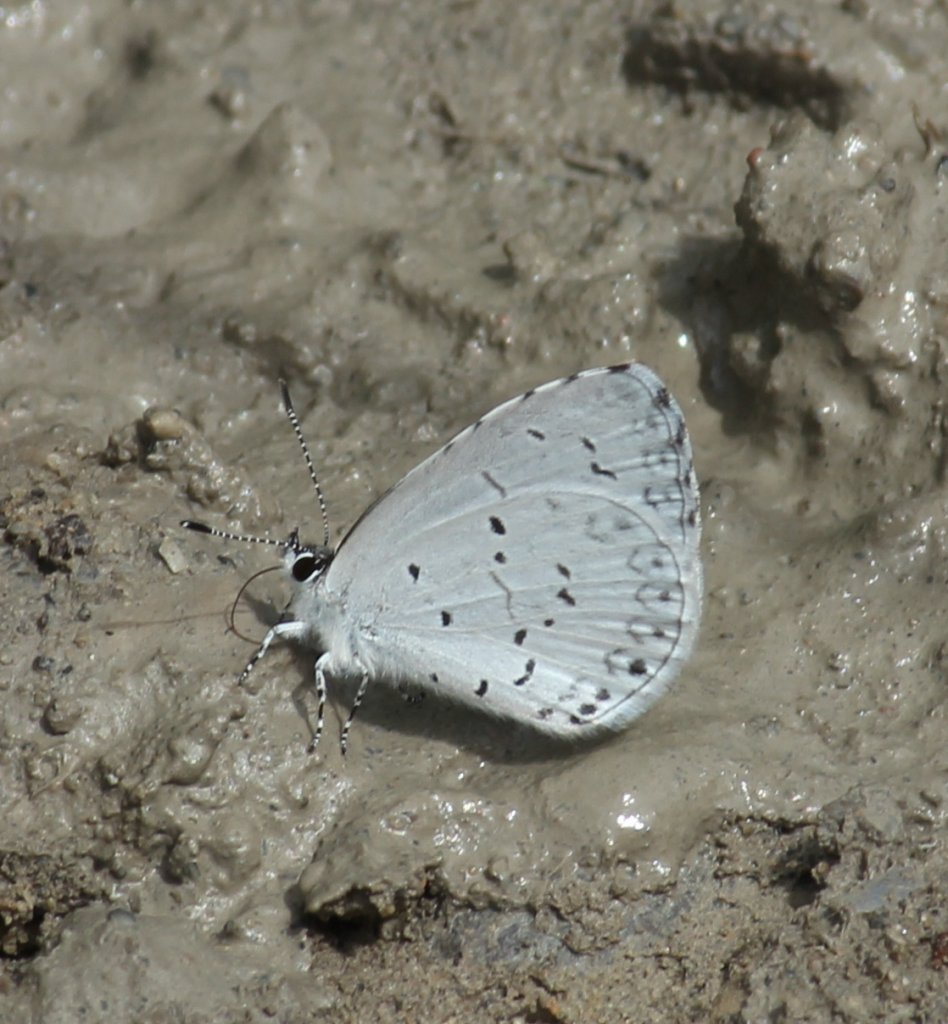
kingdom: Animalia
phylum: Arthropoda
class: Insecta
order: Lepidoptera
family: Lycaenidae
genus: Celastrina
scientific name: Celastrina
